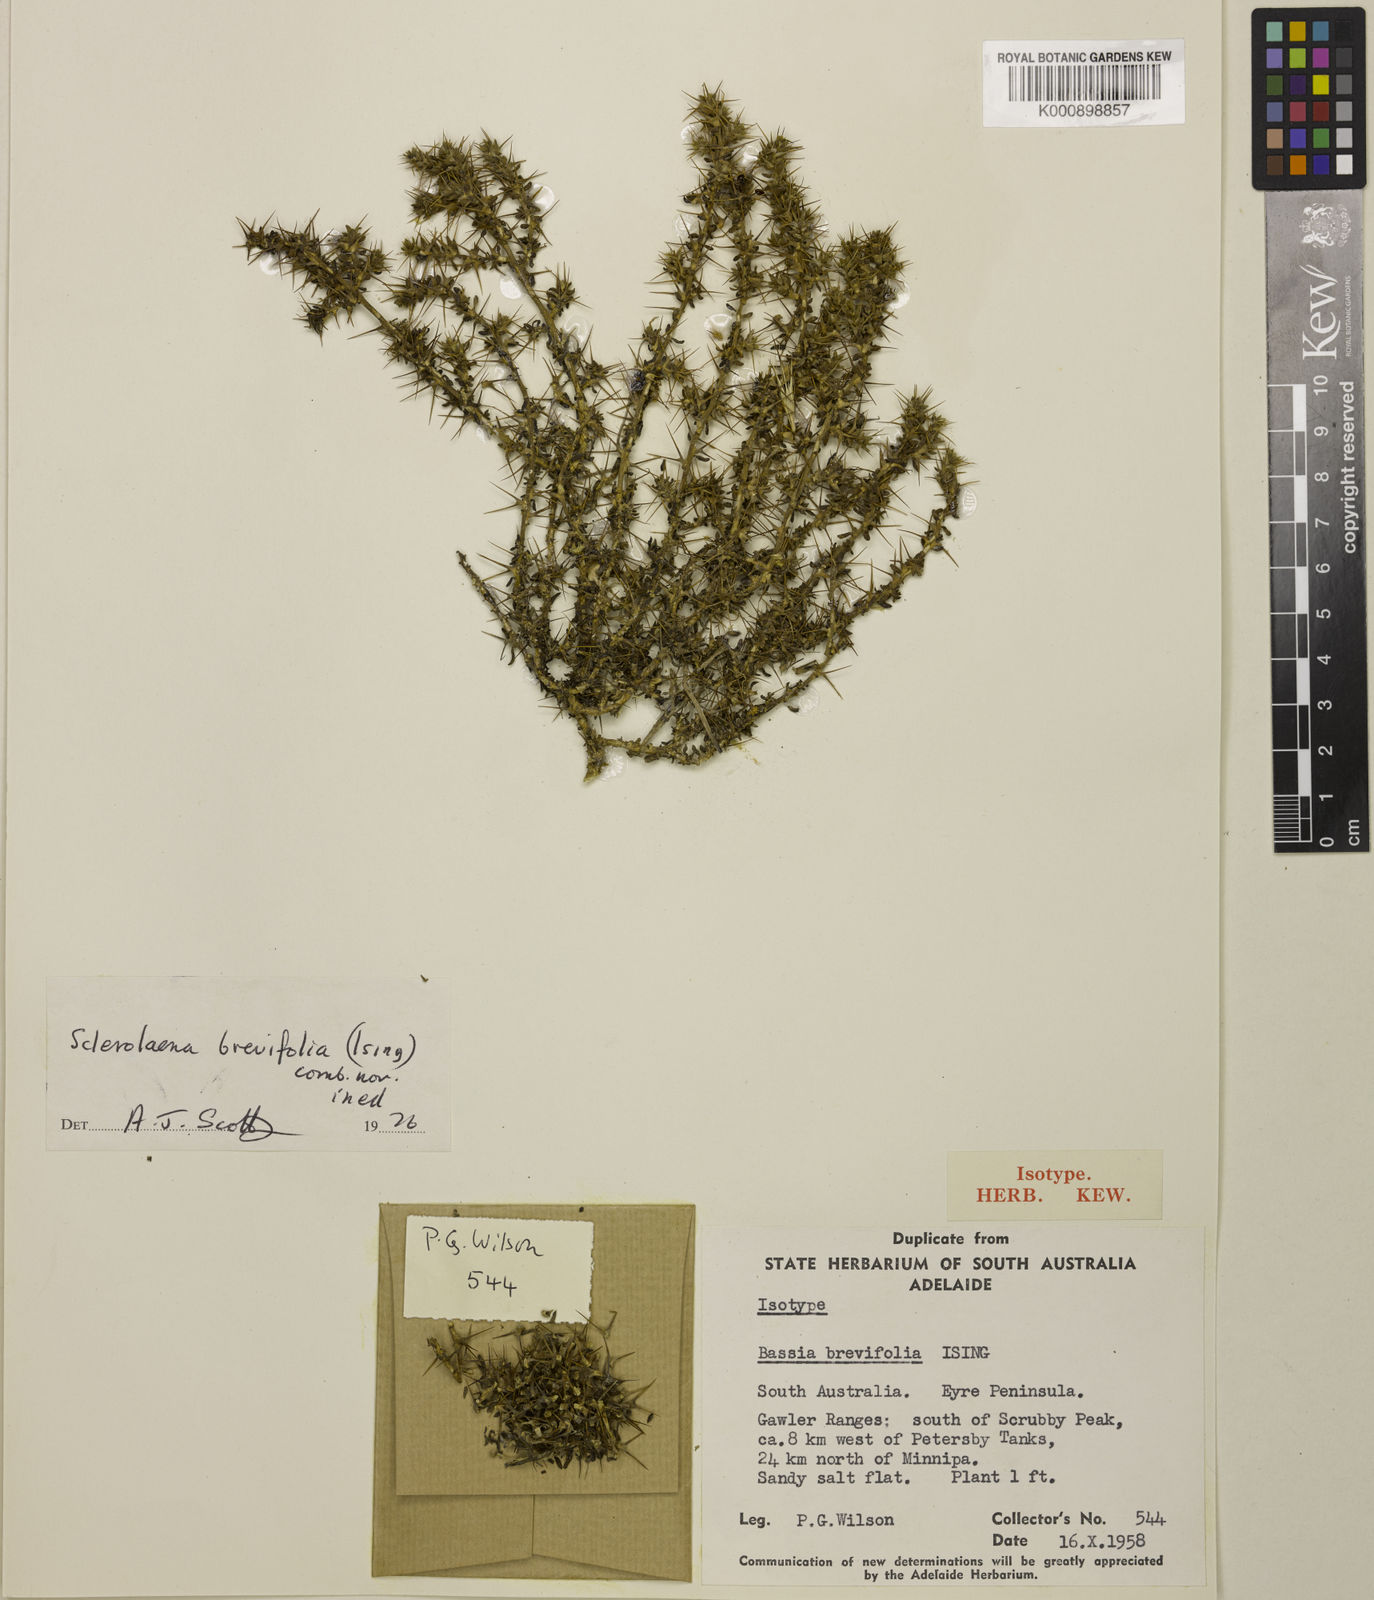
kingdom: Plantae
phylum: Tracheophyta
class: Magnoliopsida
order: Caryophyllales
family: Amaranthaceae
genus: Sclerolaena
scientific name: Sclerolaena brevifolia
